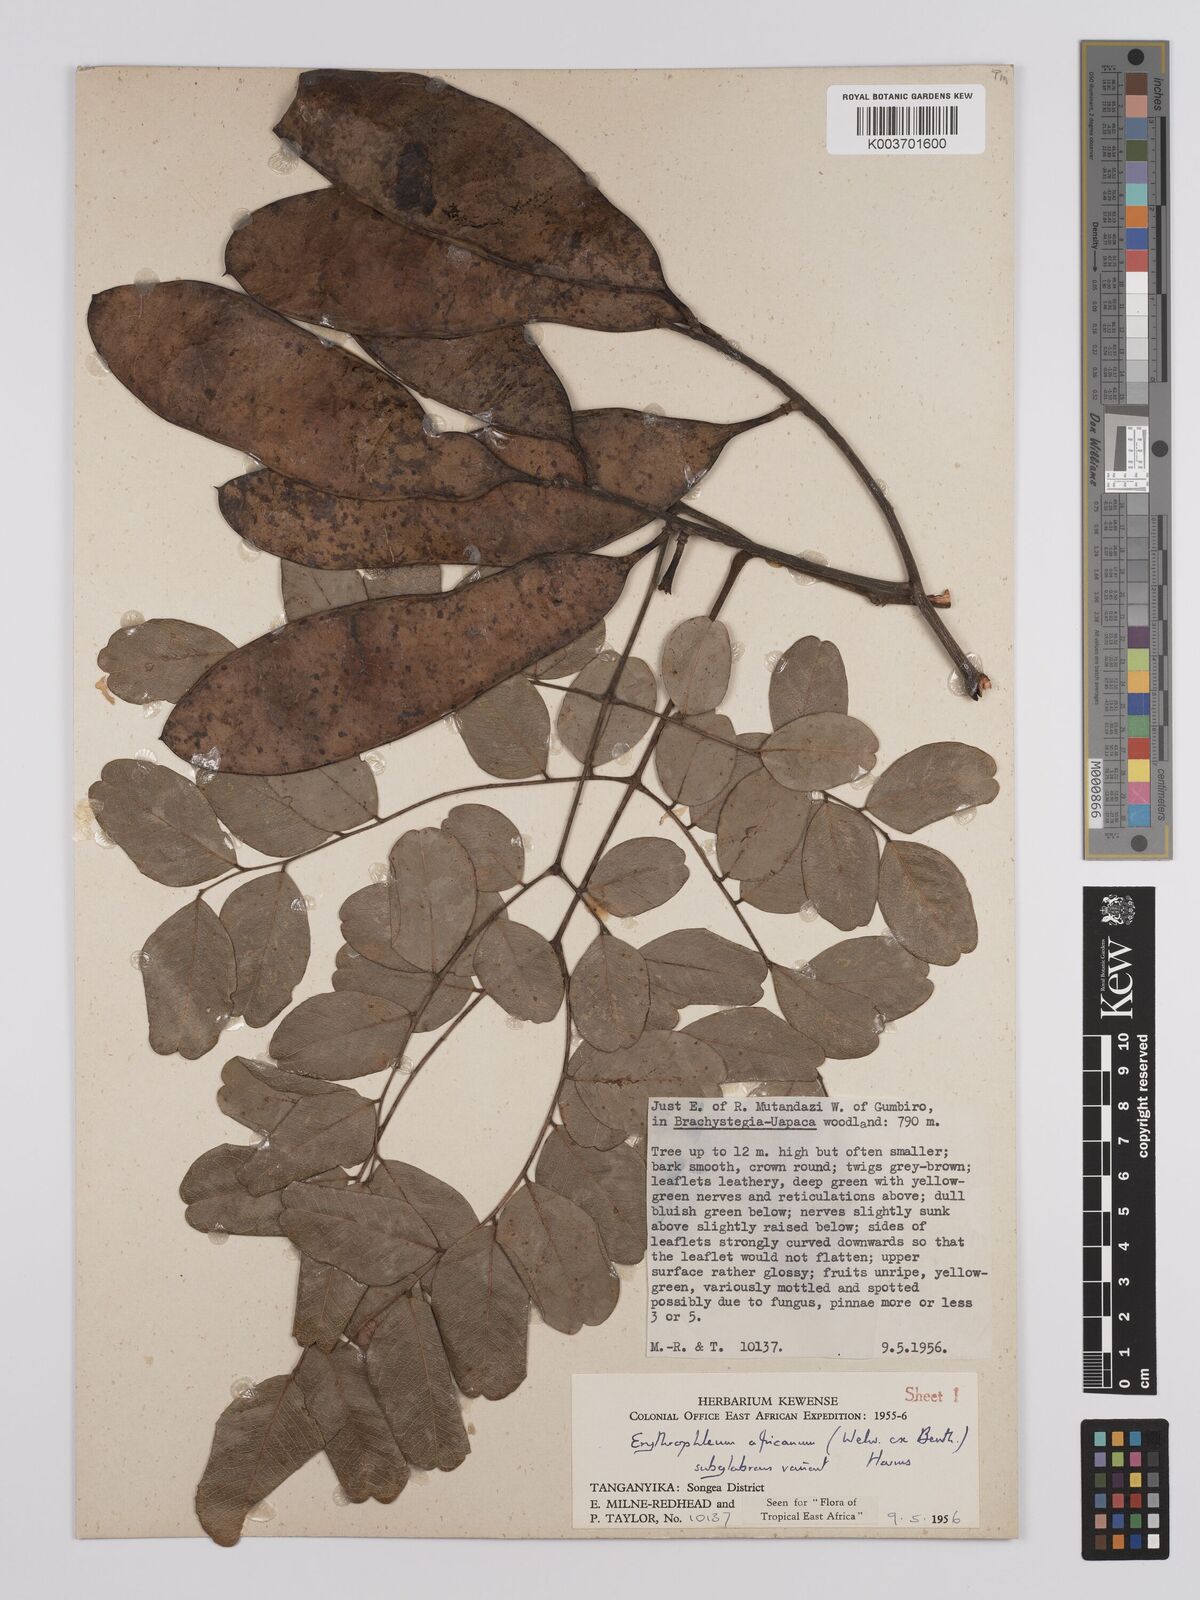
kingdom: Plantae
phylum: Tracheophyta
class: Magnoliopsida
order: Fabales
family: Fabaceae
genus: Erythrophleum
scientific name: Erythrophleum africanum
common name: African blackwood
